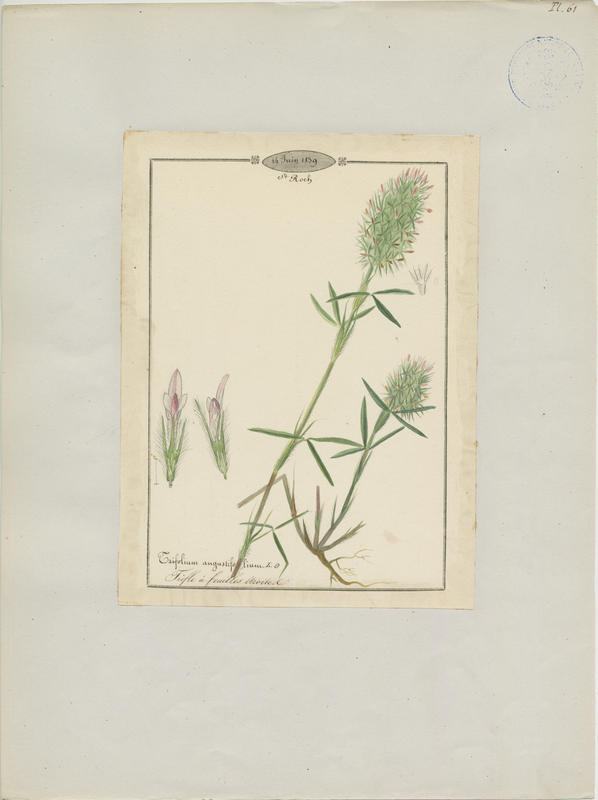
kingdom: Plantae
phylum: Tracheophyta
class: Magnoliopsida
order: Fabales
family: Fabaceae
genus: Trifolium
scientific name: Trifolium angustifolium
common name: Narrow clover
